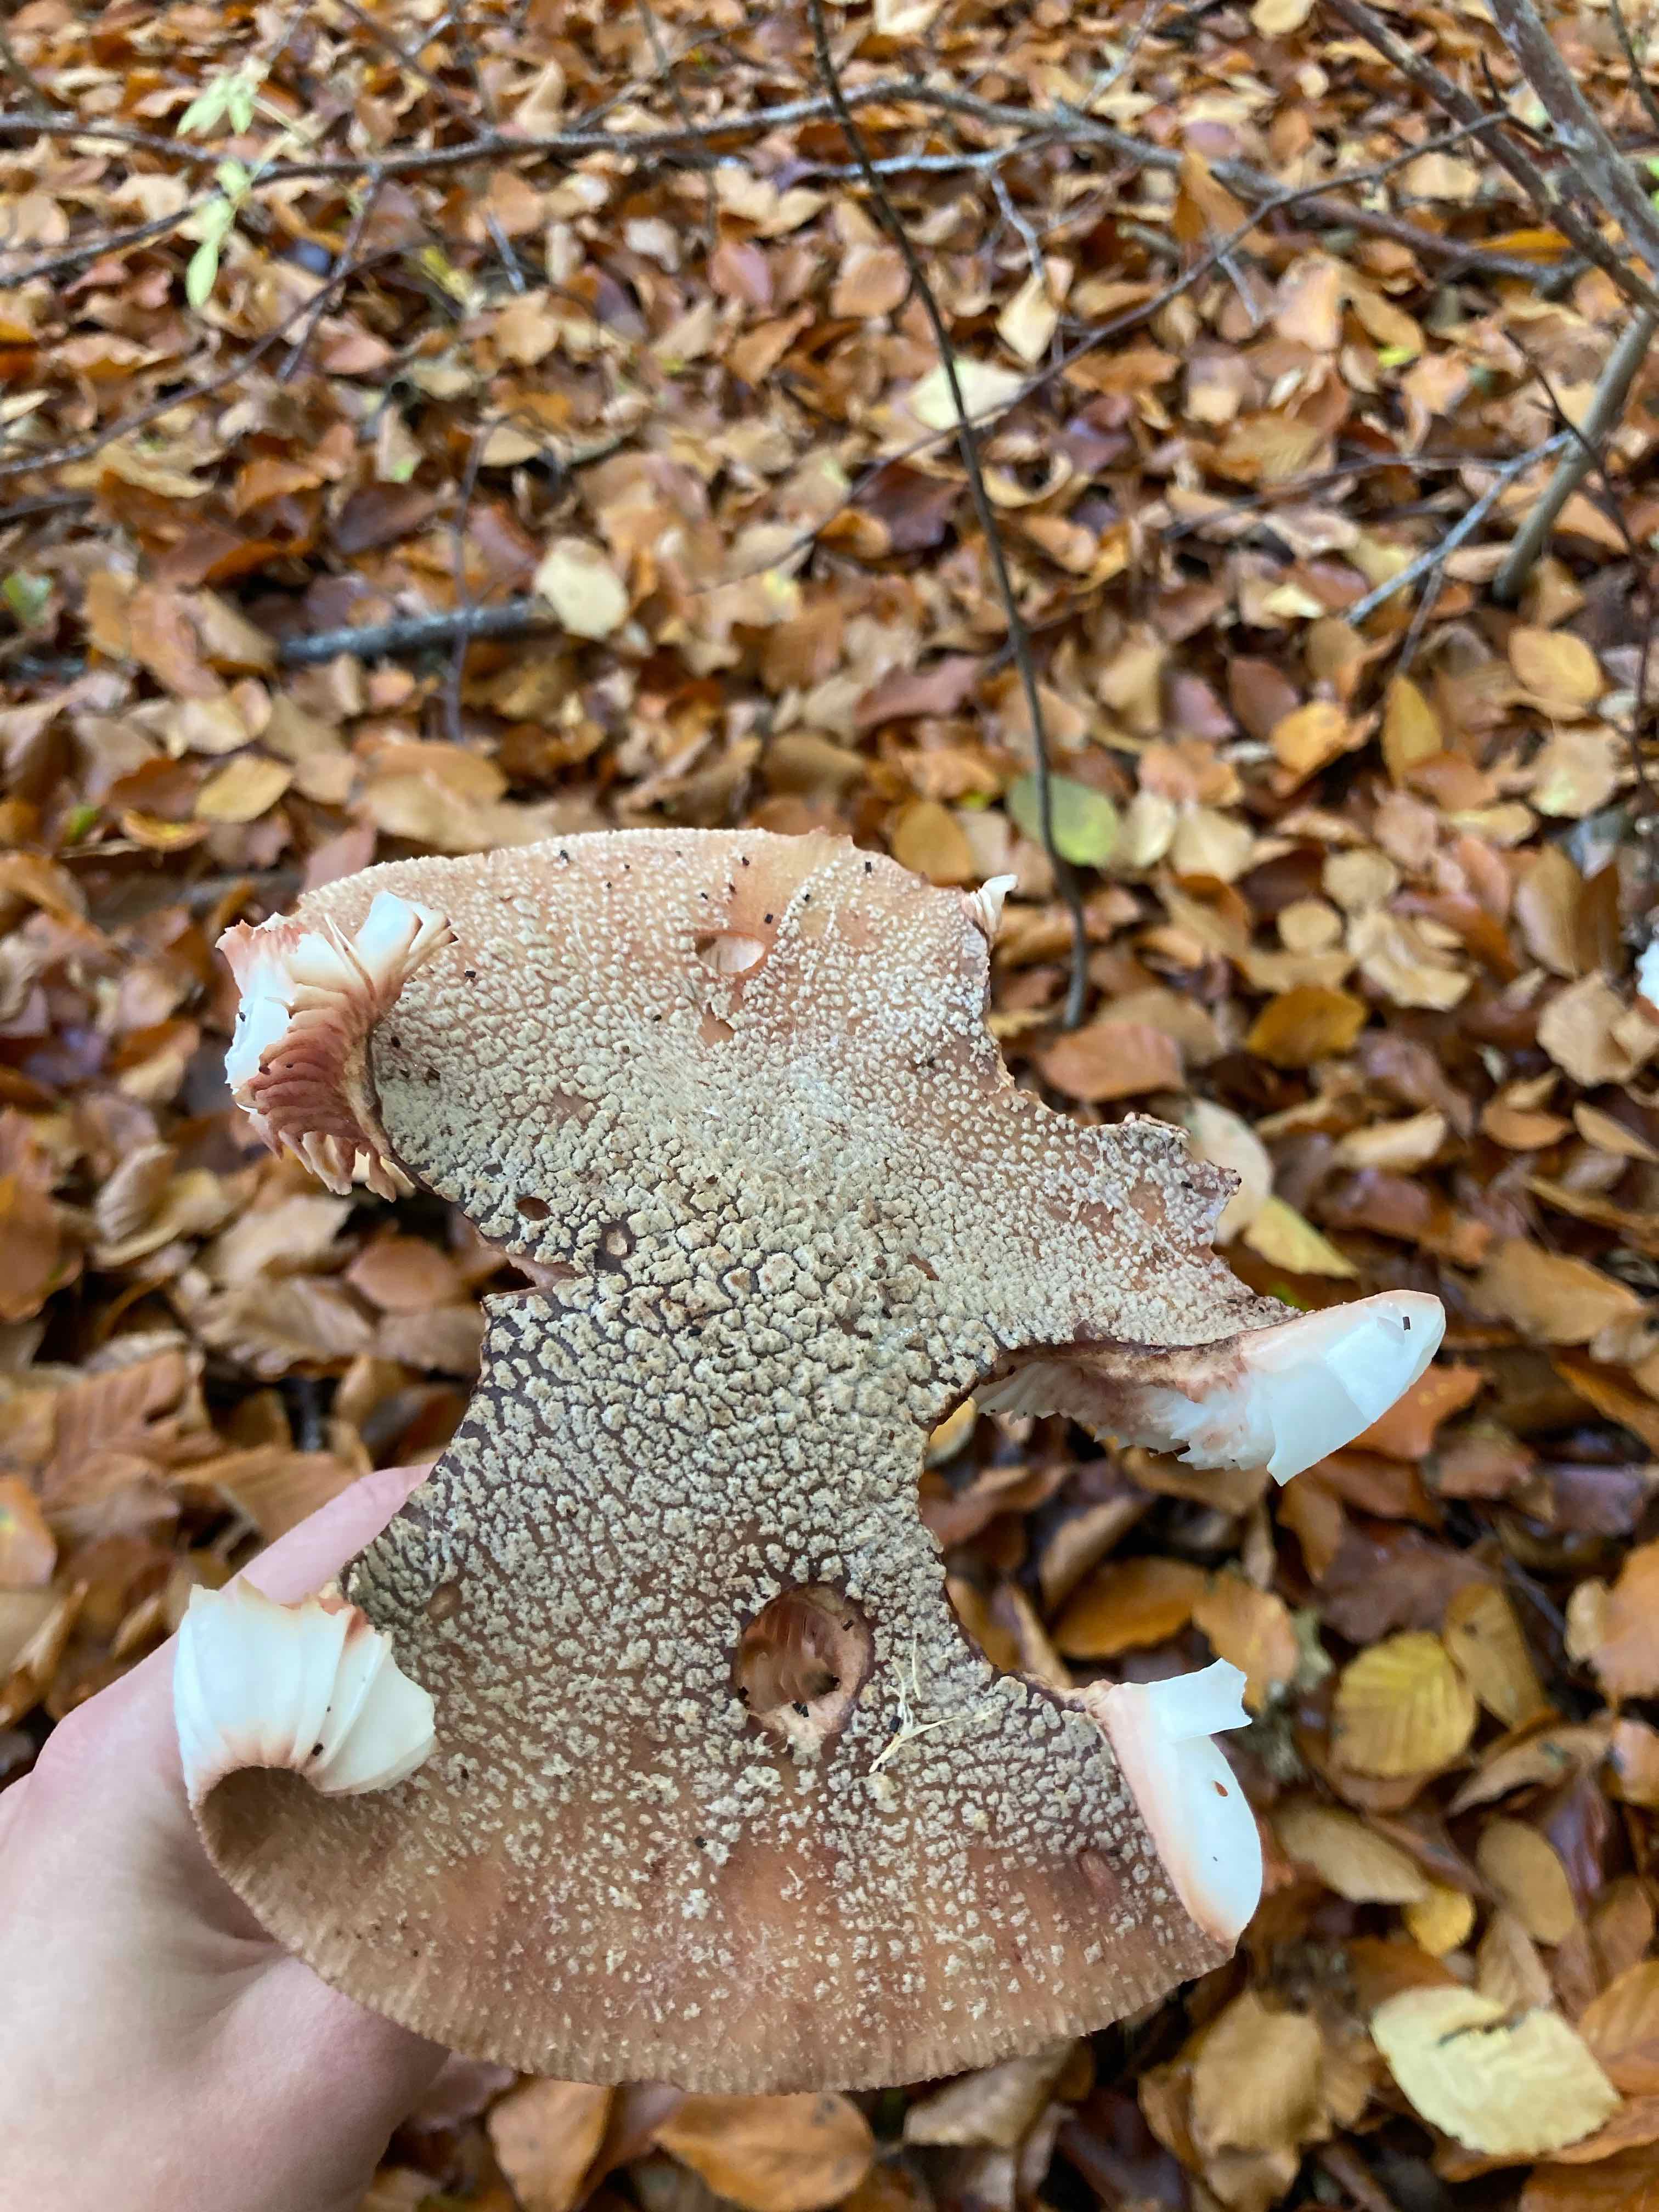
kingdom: Fungi
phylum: Basidiomycota
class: Agaricomycetes
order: Agaricales
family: Amanitaceae
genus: Amanita
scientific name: Amanita rubescens
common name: rødmende fluesvamp
